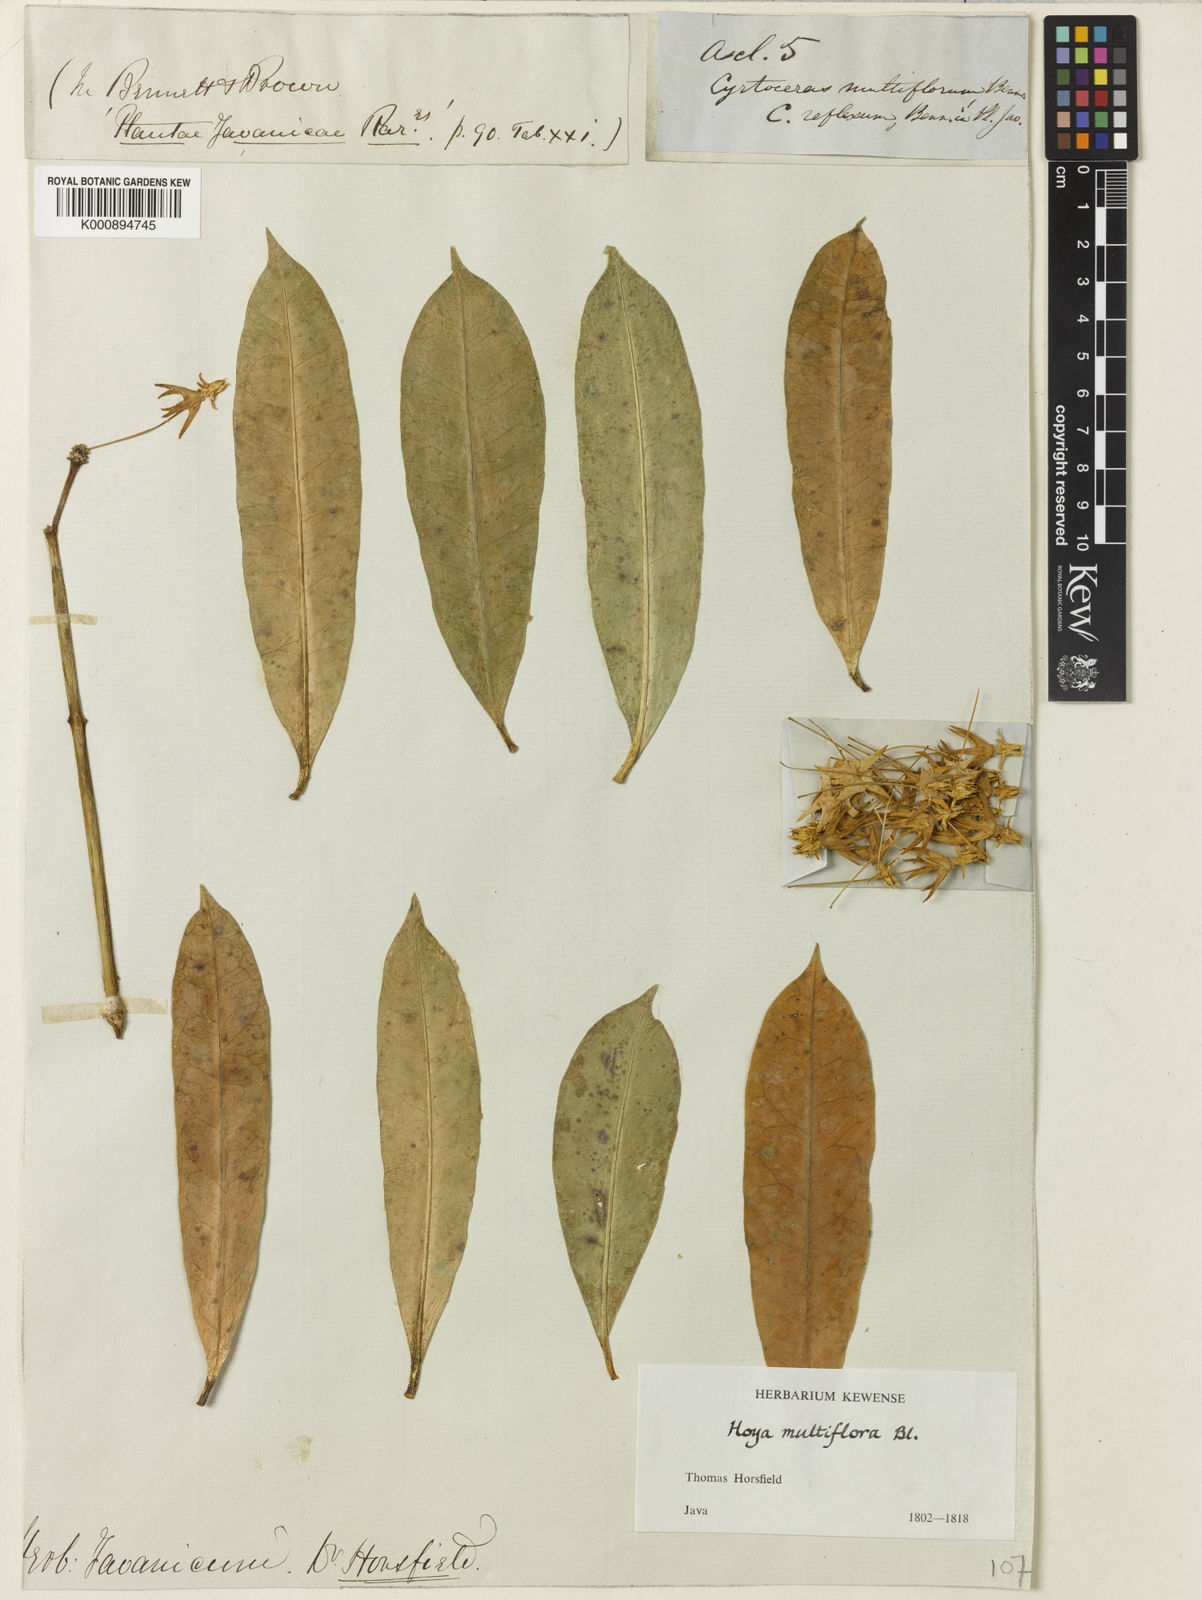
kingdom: Plantae
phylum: Tracheophyta
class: Magnoliopsida
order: Gentianales
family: Apocynaceae
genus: Hoya
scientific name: Hoya multiflora
